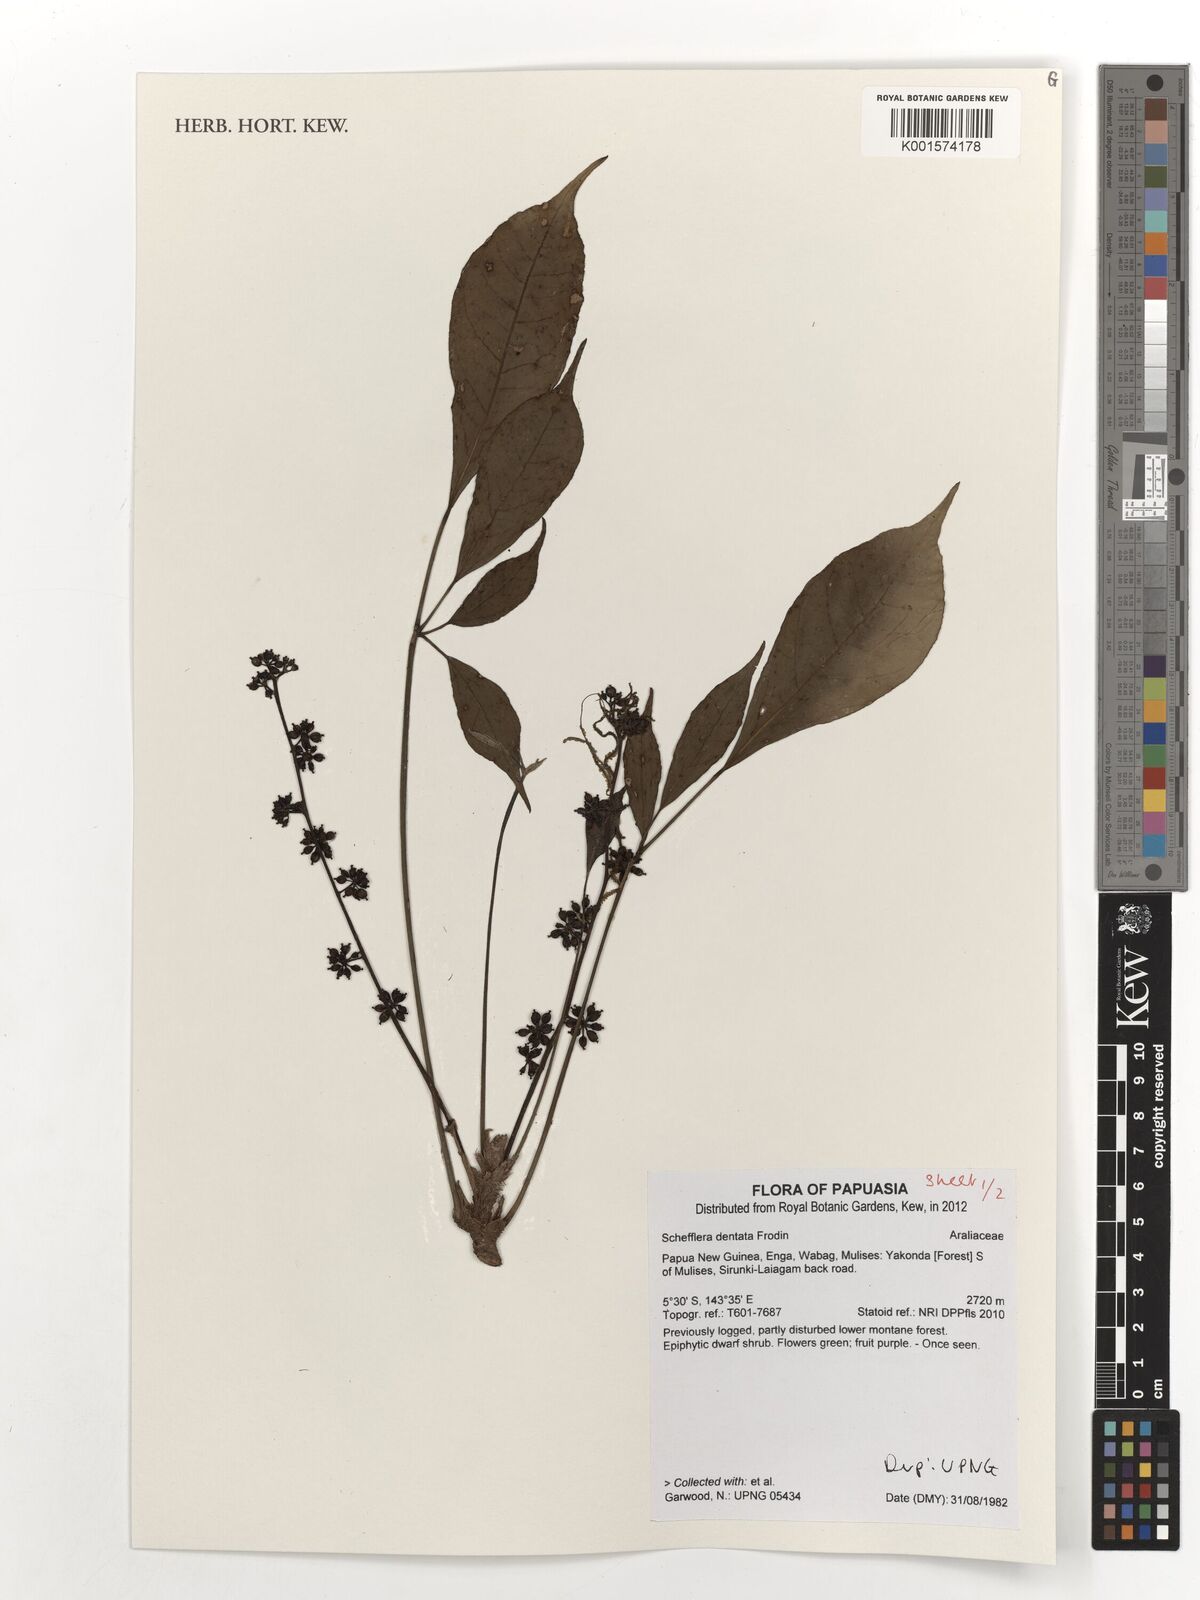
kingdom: Plantae
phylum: Tracheophyta
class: Magnoliopsida
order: Apiales
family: Araliaceae
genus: Heptapleurum
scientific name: Heptapleurum dentatum
